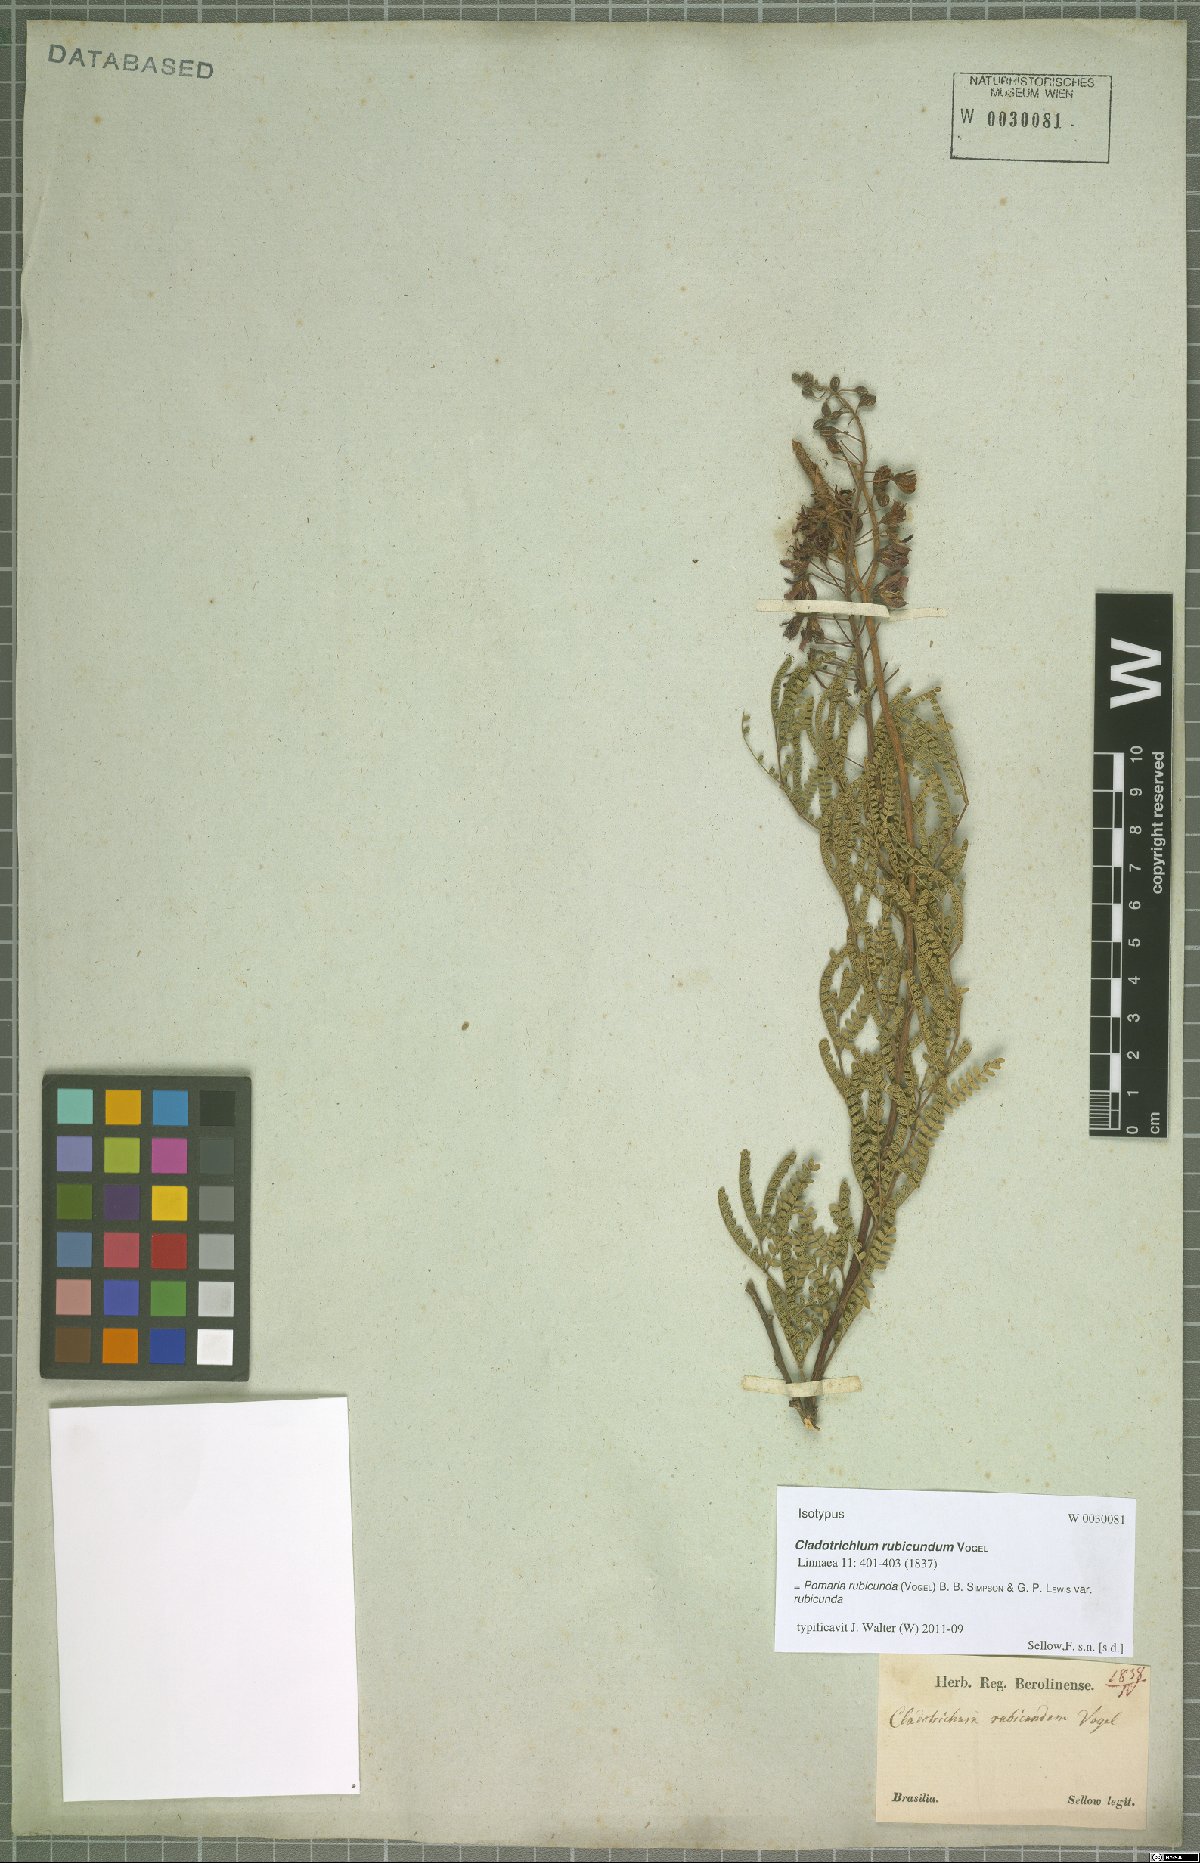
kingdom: Plantae
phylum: Tracheophyta
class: Magnoliopsida
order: Fabales
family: Fabaceae
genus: Pomaria
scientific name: Pomaria rubicunda
